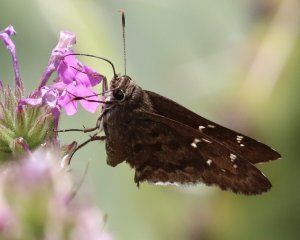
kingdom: Animalia
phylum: Arthropoda
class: Insecta
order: Lepidoptera
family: Hesperiidae
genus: Cogia
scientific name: Cogia hippalus
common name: Acacia Skipper
